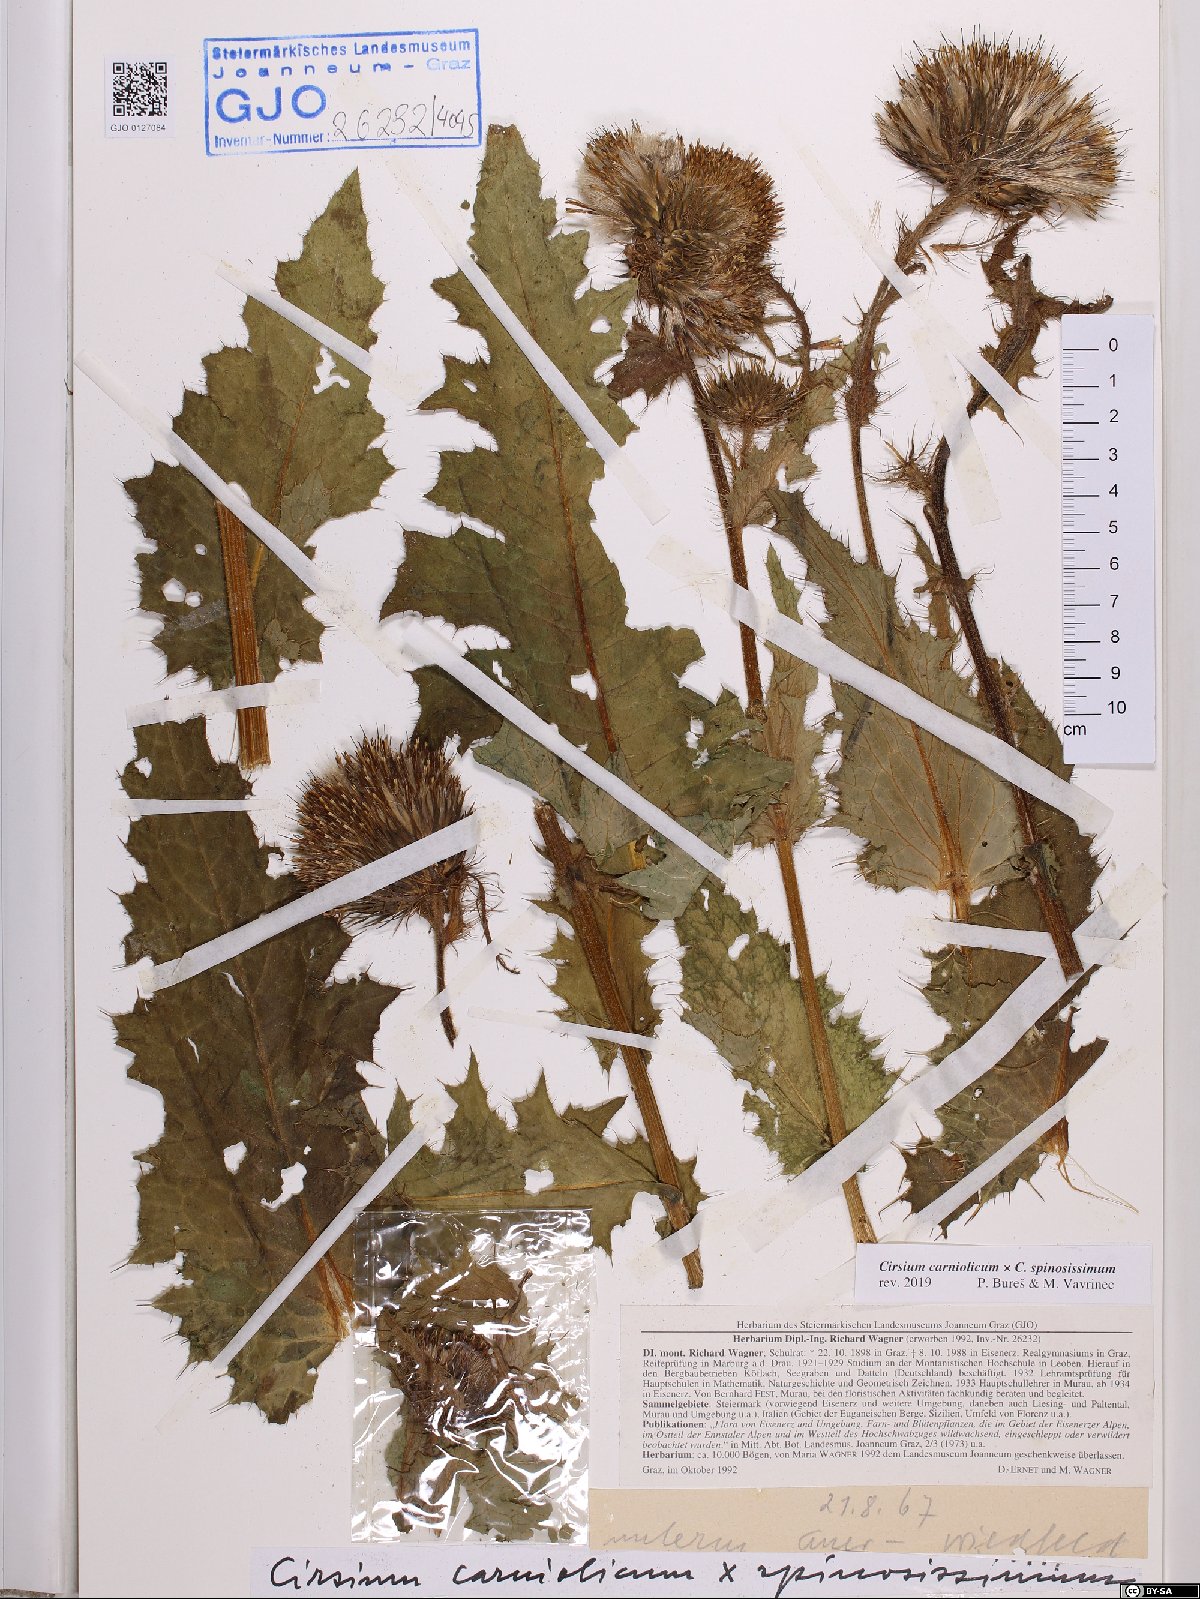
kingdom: Plantae
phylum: Tracheophyta
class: Magnoliopsida
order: Asterales
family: Asteraceae
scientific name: Asteraceae
